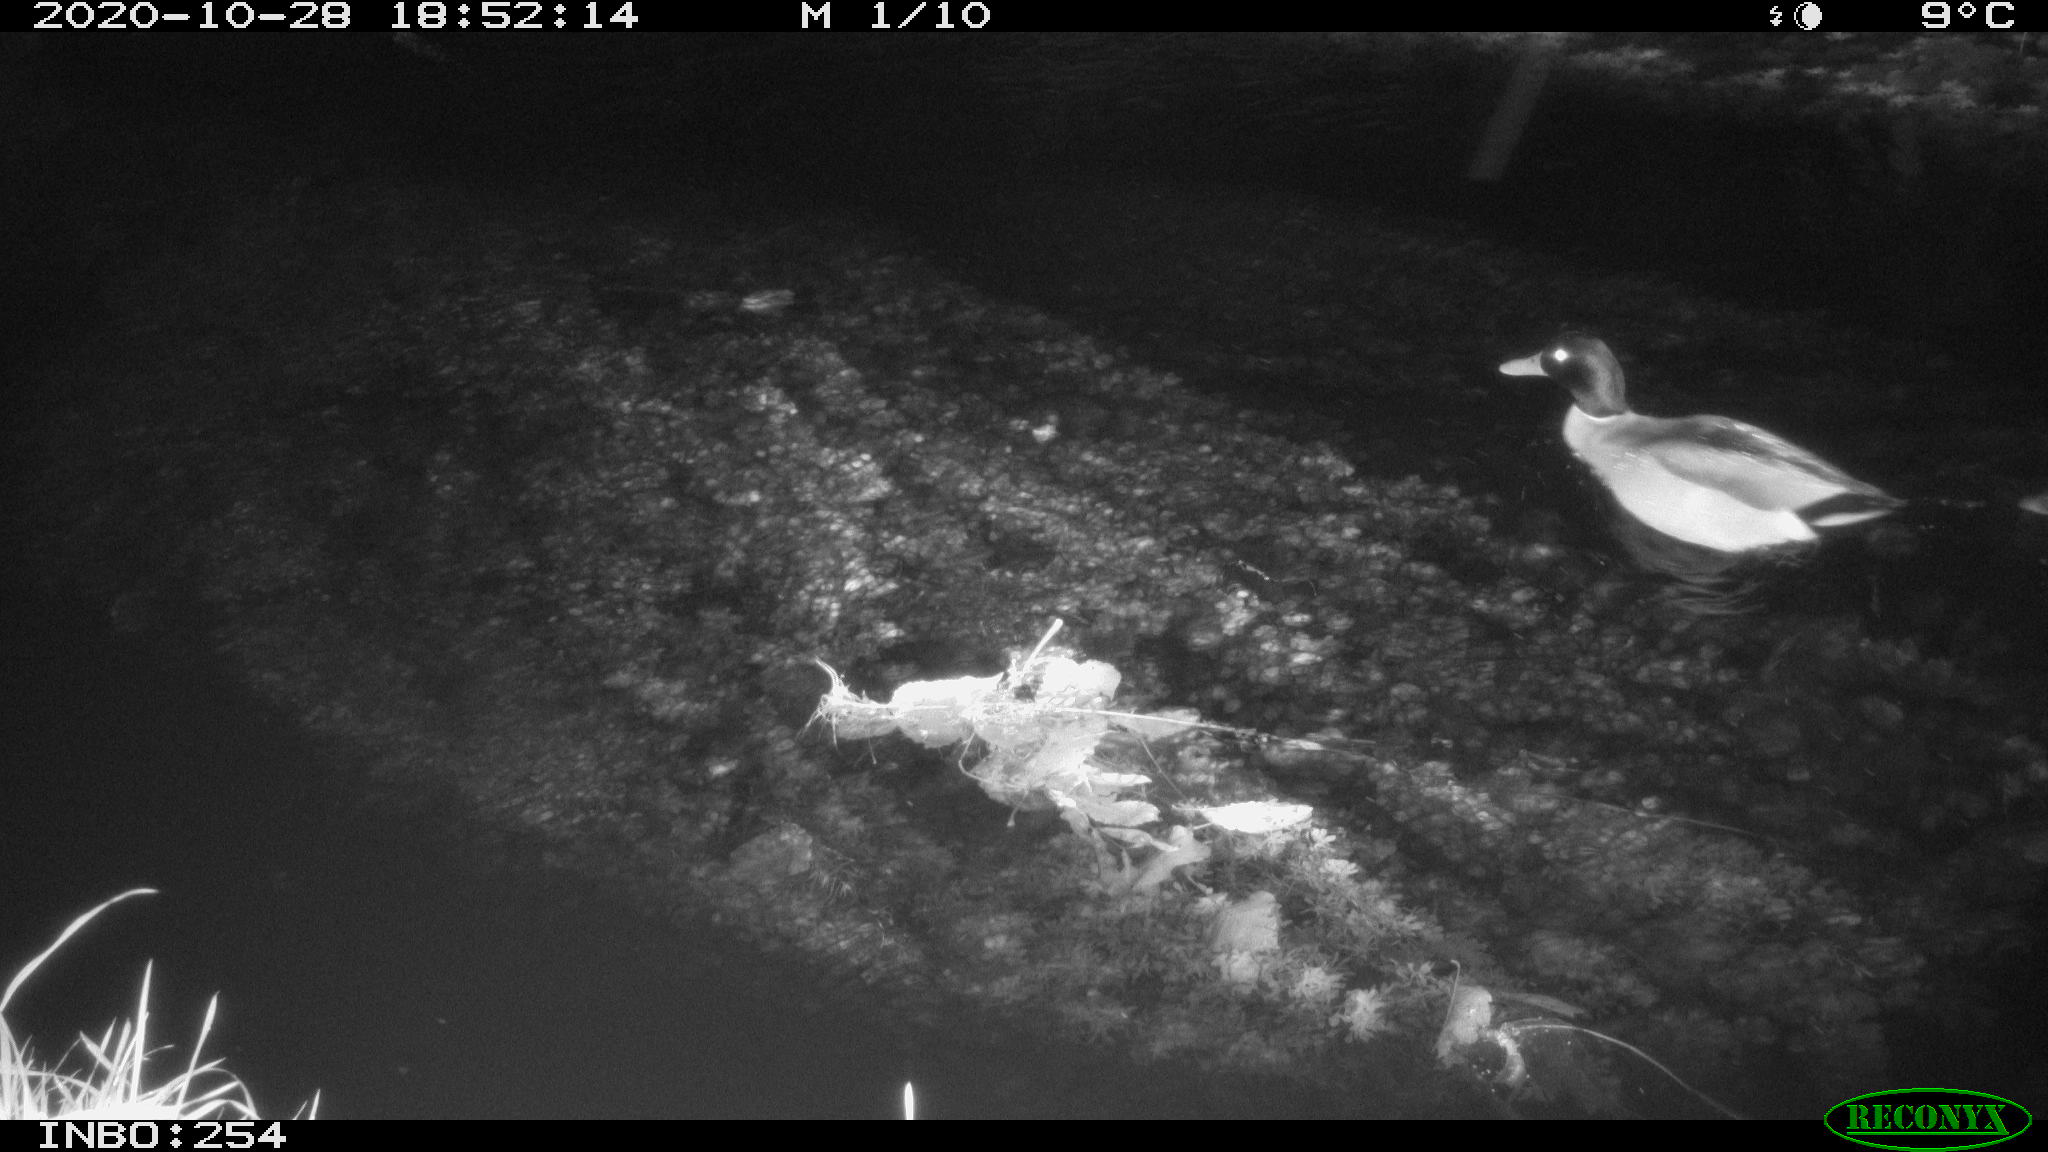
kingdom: Animalia
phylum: Chordata
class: Aves
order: Anseriformes
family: Anatidae
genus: Anas
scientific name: Anas platyrhynchos
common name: Mallard
